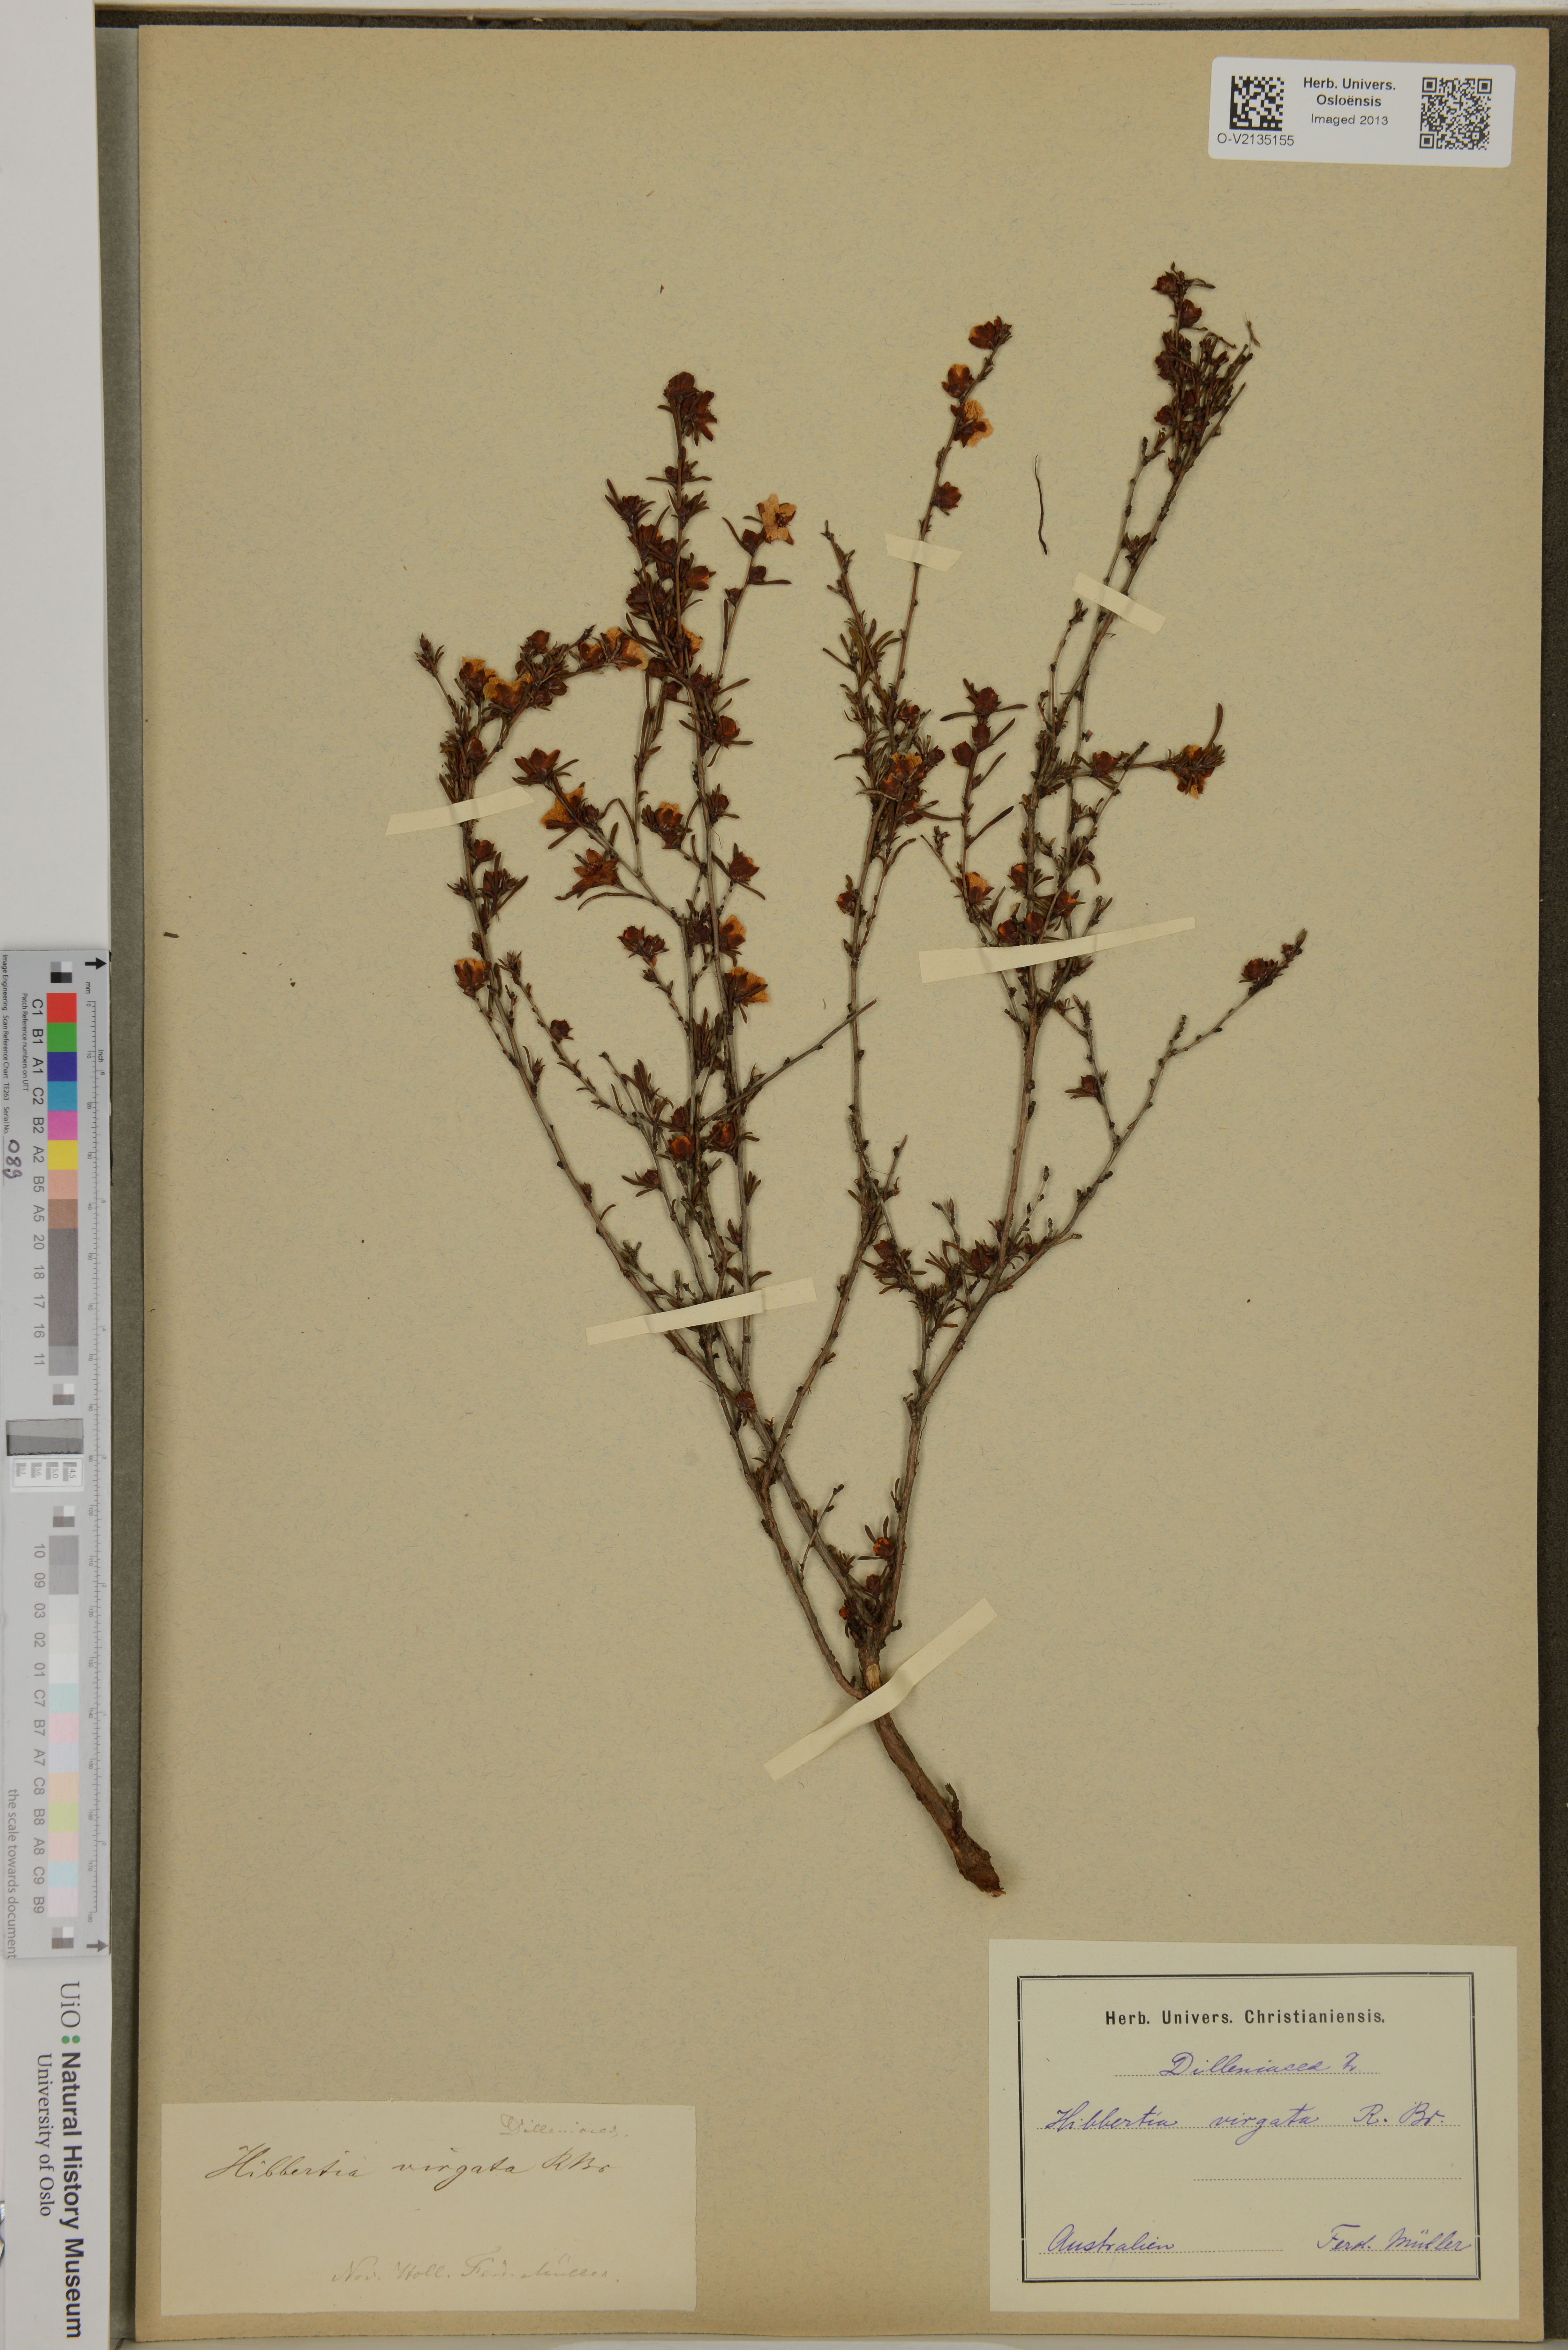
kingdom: Plantae
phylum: Tracheophyta
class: Magnoliopsida
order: Dilleniales
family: Dilleniaceae
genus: Hibbertia
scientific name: Hibbertia virgata
